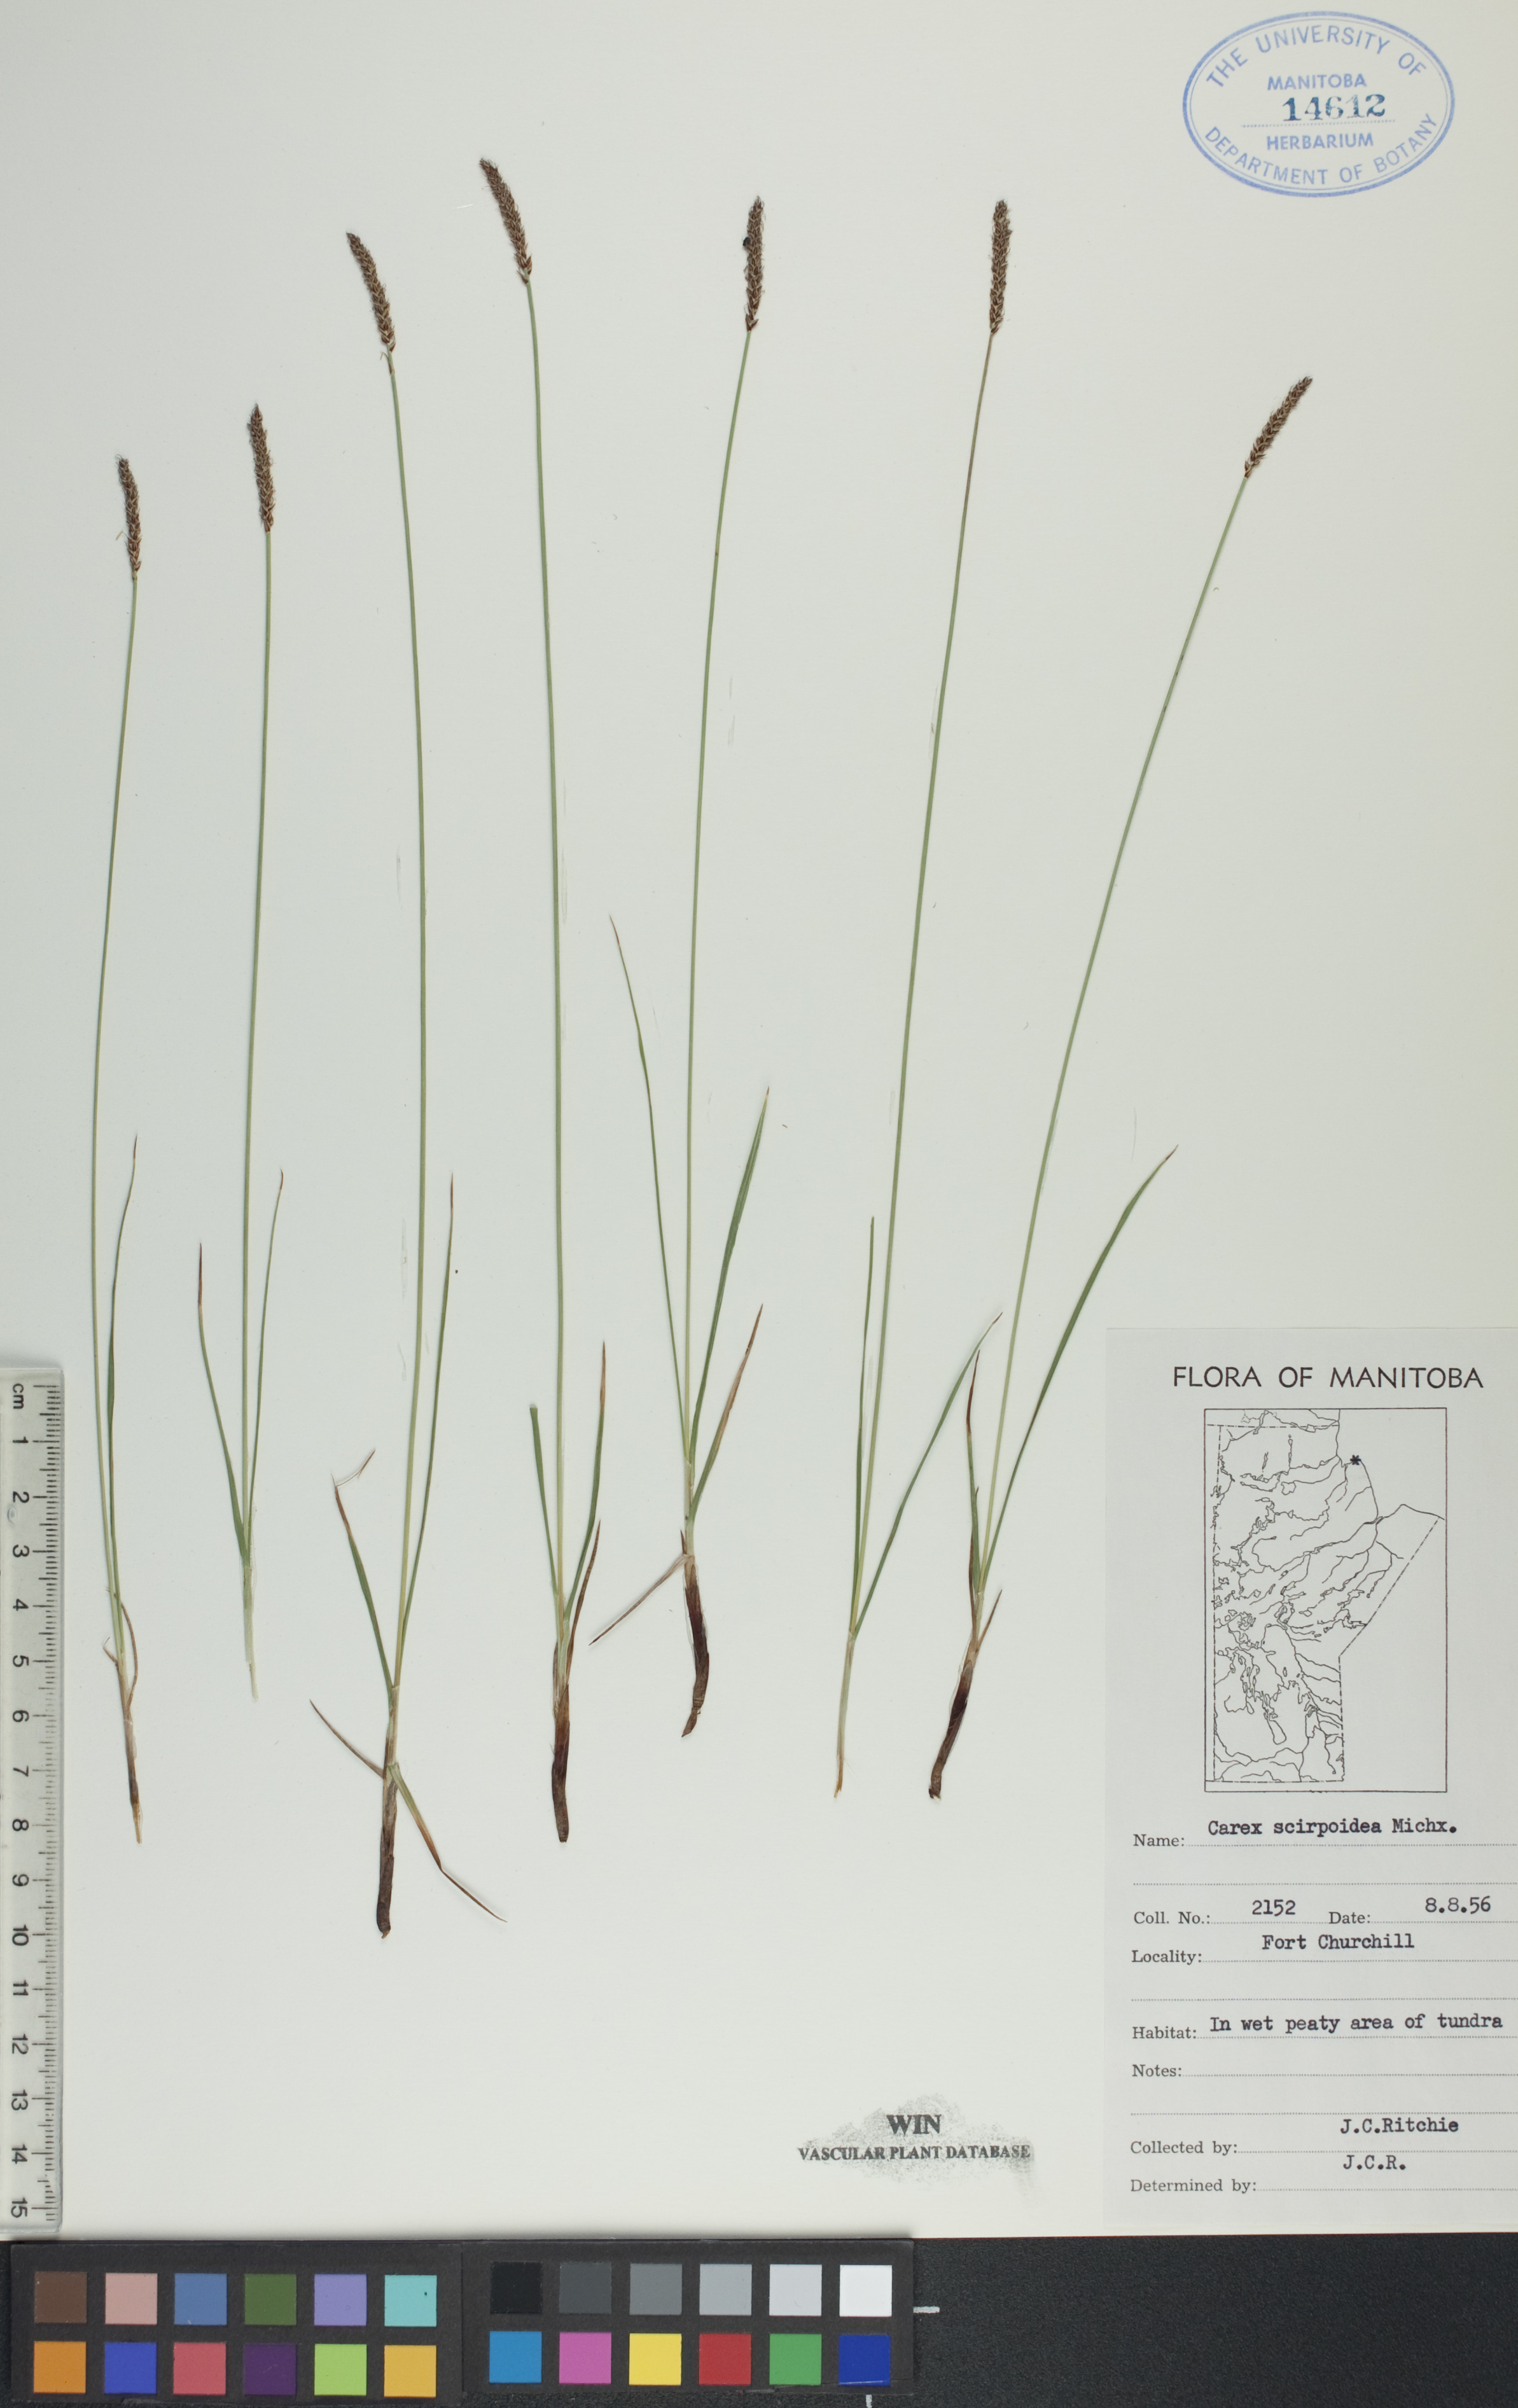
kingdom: Plantae
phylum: Tracheophyta
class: Liliopsida
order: Poales
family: Cyperaceae
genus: Carex
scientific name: Carex scirpoidea
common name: Canada single-spike sedge
